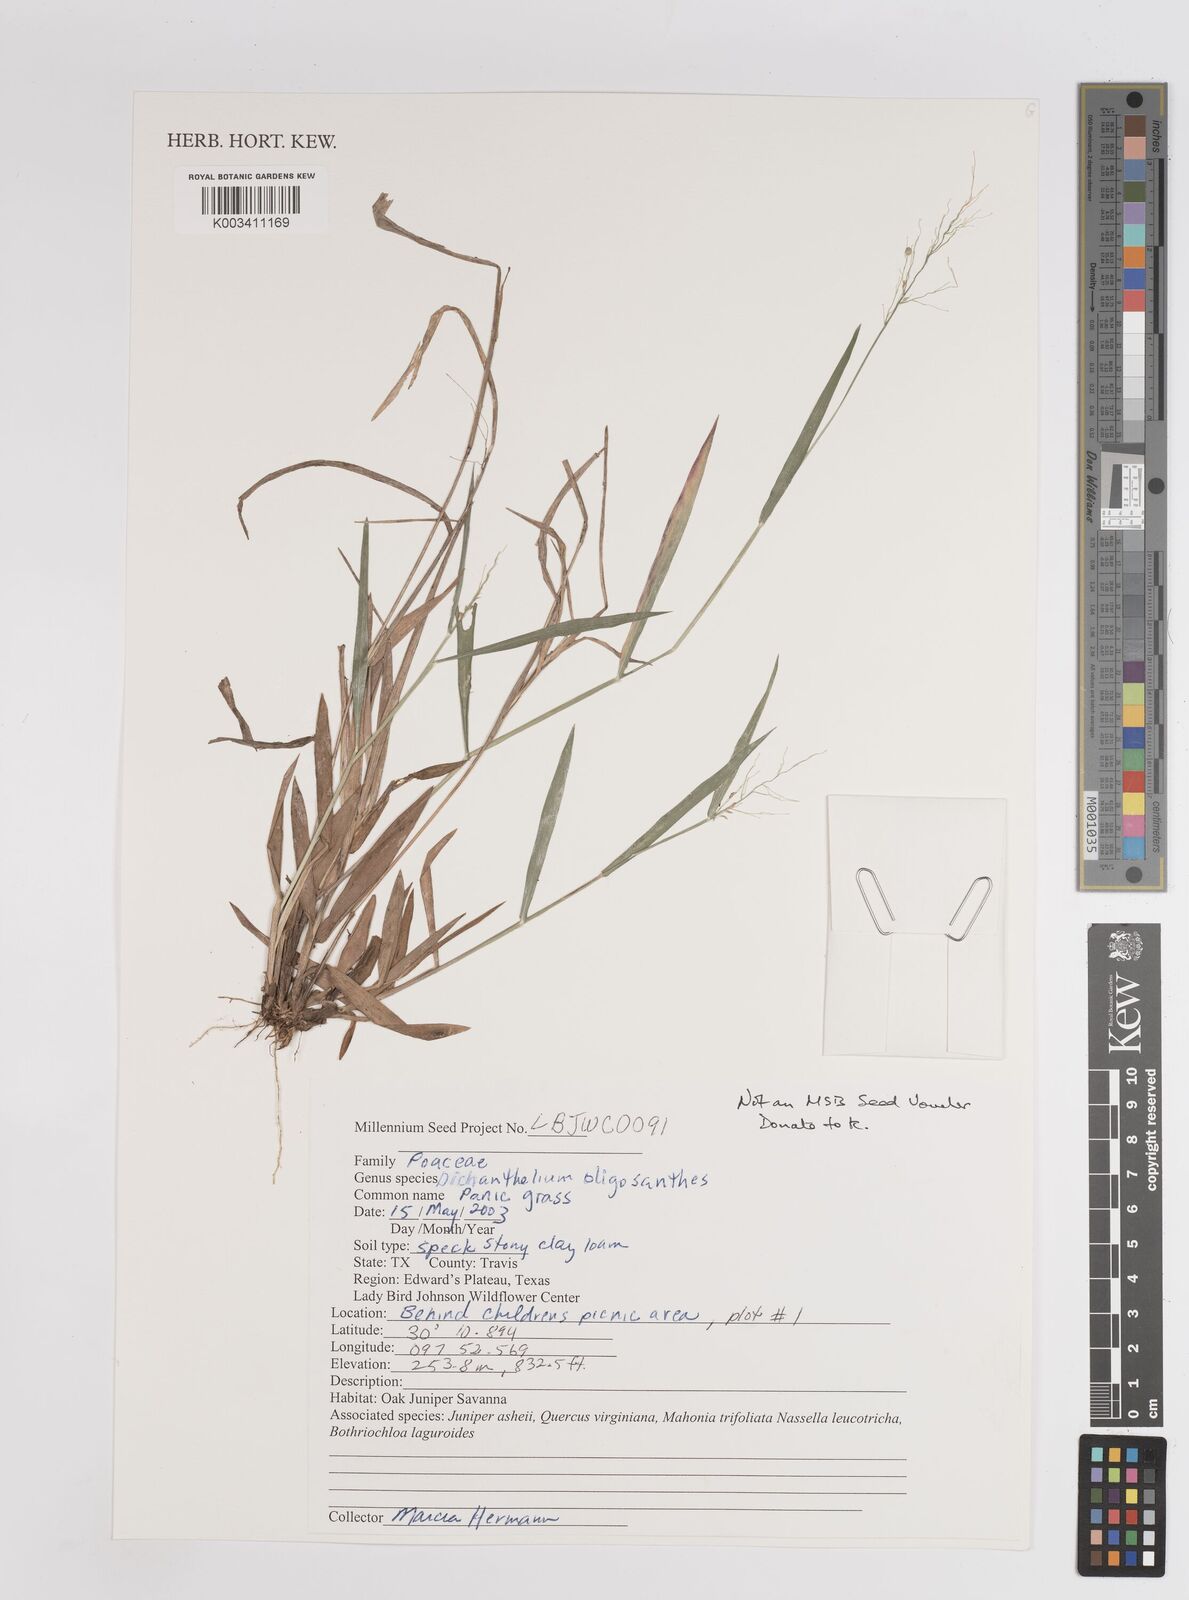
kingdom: Plantae
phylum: Tracheophyta
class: Liliopsida
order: Poales
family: Poaceae
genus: Dichanthelium
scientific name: Dichanthelium oligosanthes
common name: Few-anther obscuregrass
